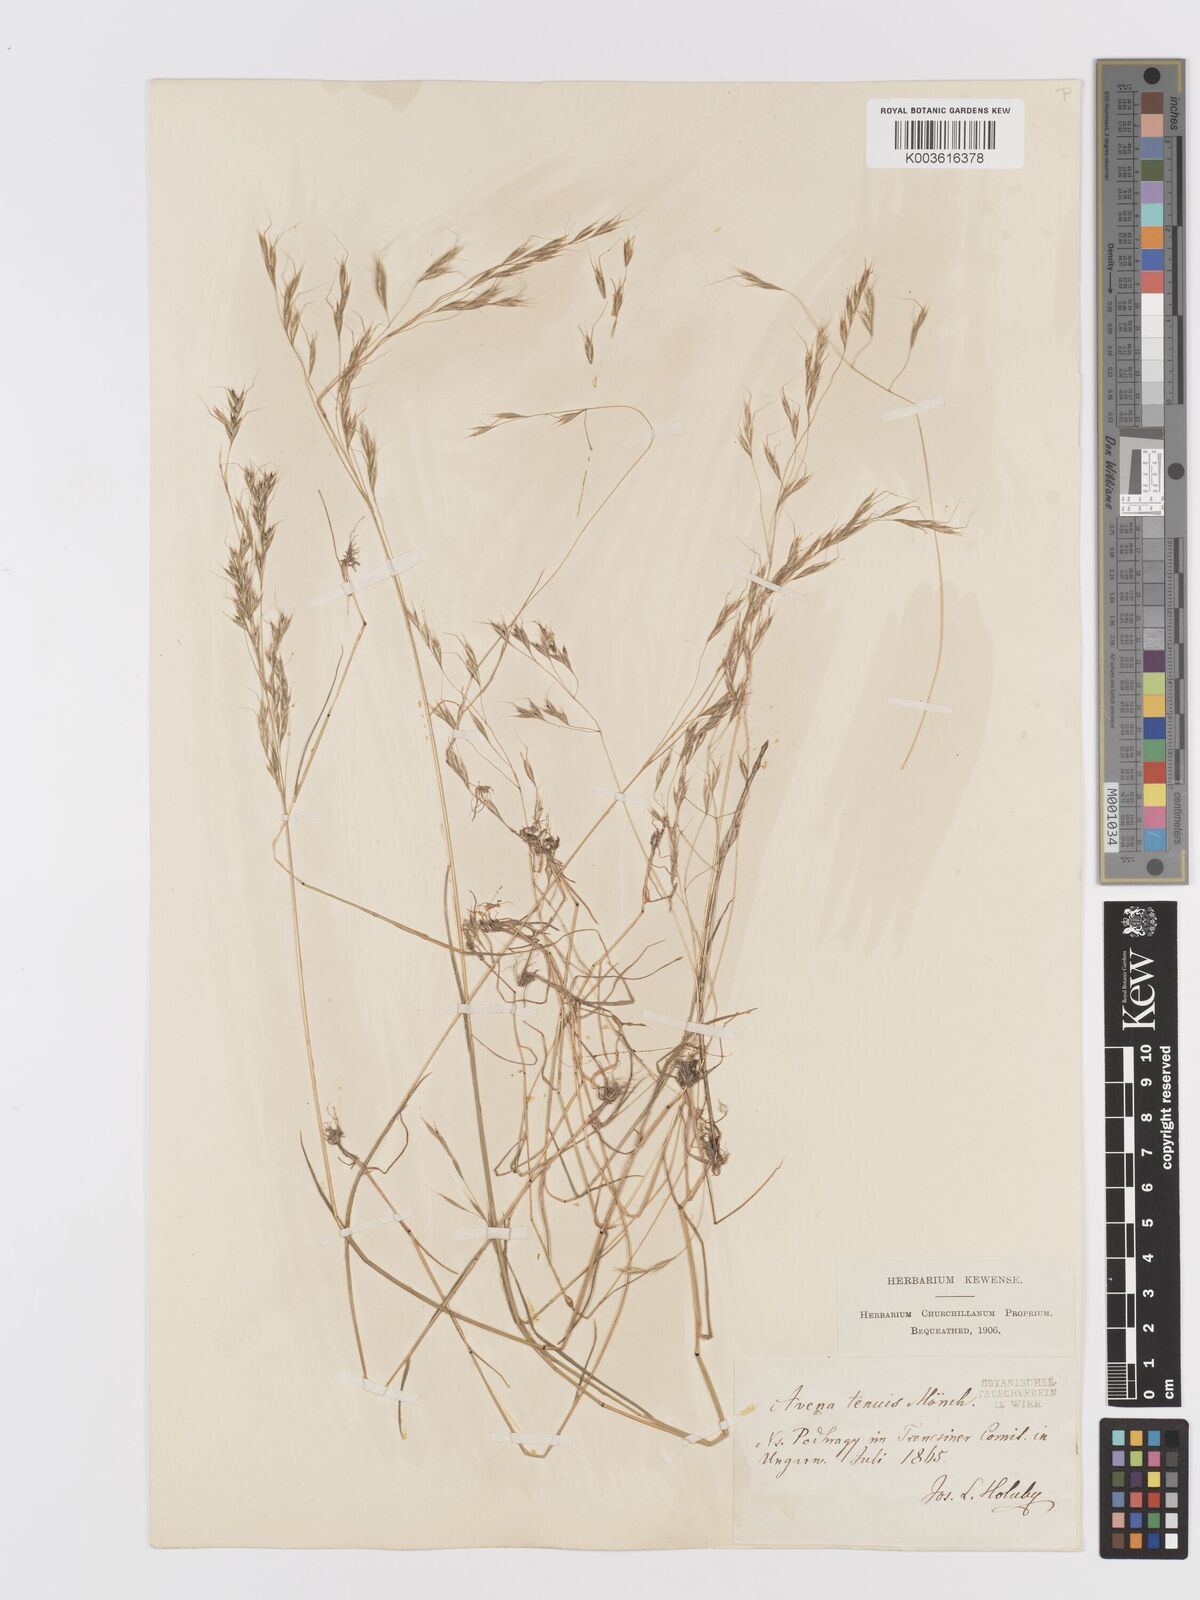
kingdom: Plantae
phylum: Tracheophyta
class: Liliopsida
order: Poales
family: Poaceae
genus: Ventenata
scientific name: Ventenata dubia
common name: North africa grass
